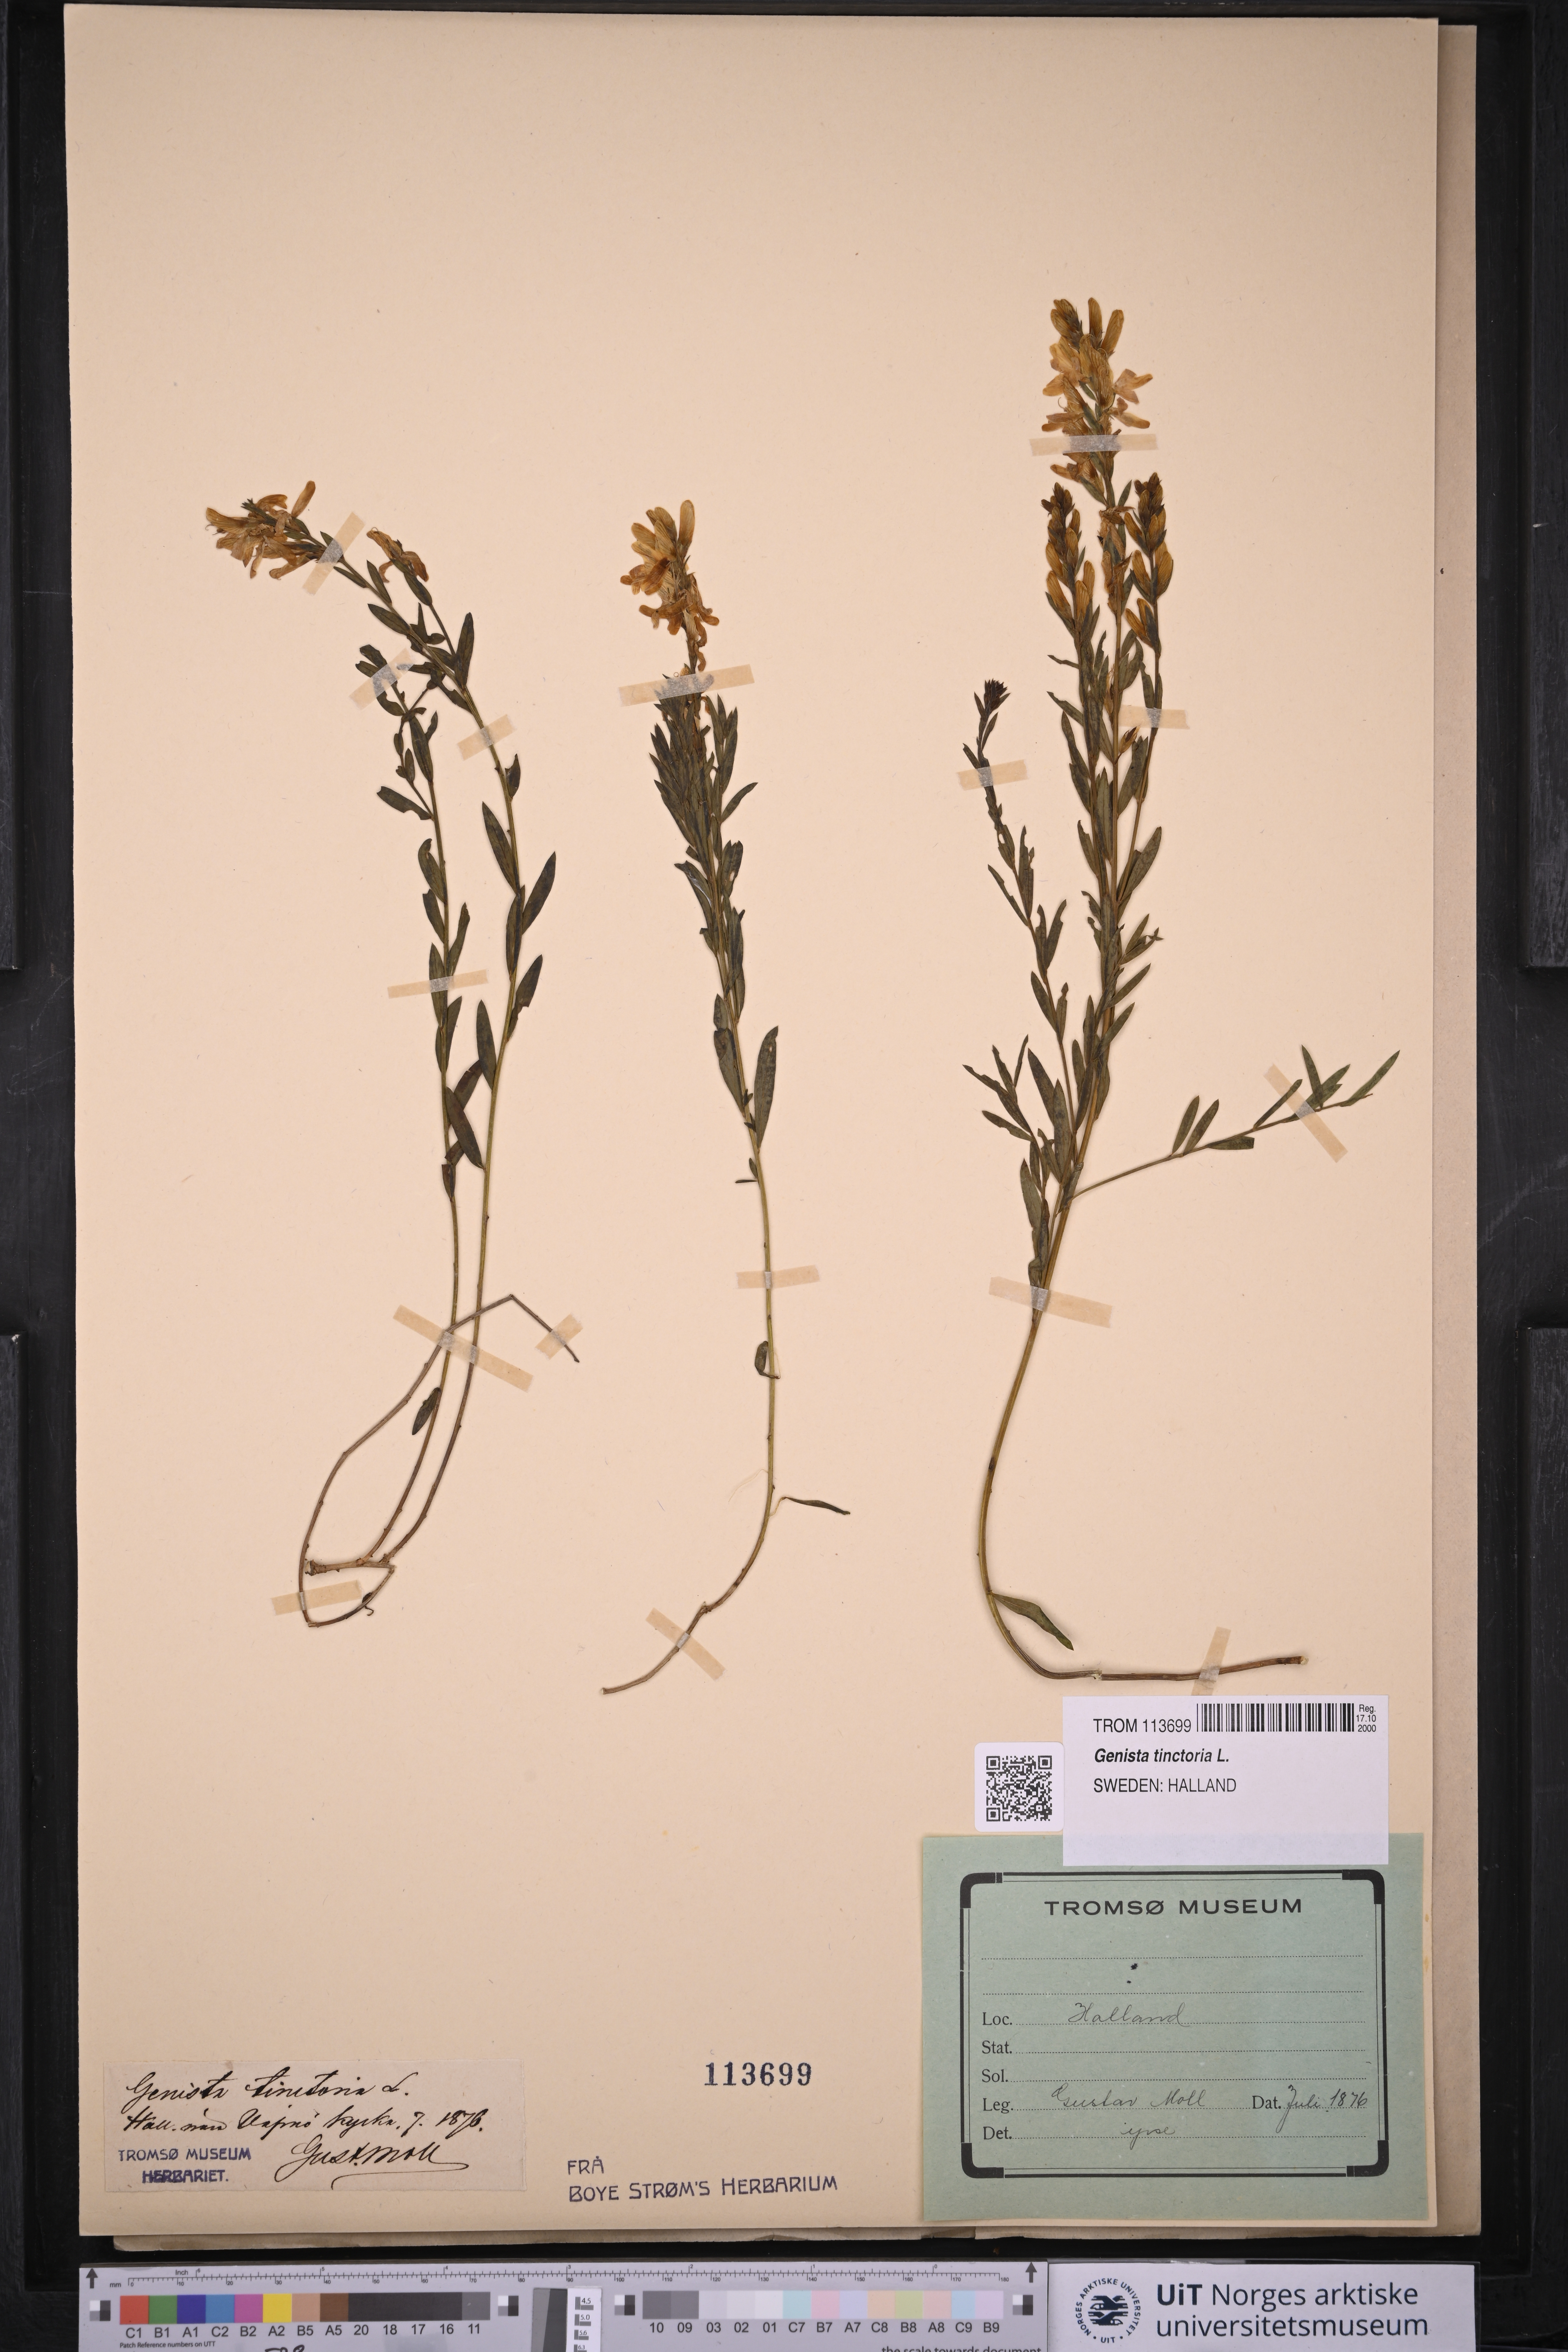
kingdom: Plantae
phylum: Tracheophyta
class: Magnoliopsida
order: Fabales
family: Fabaceae
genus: Genista
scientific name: Genista tinctoria
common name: Dyer's greenweed
